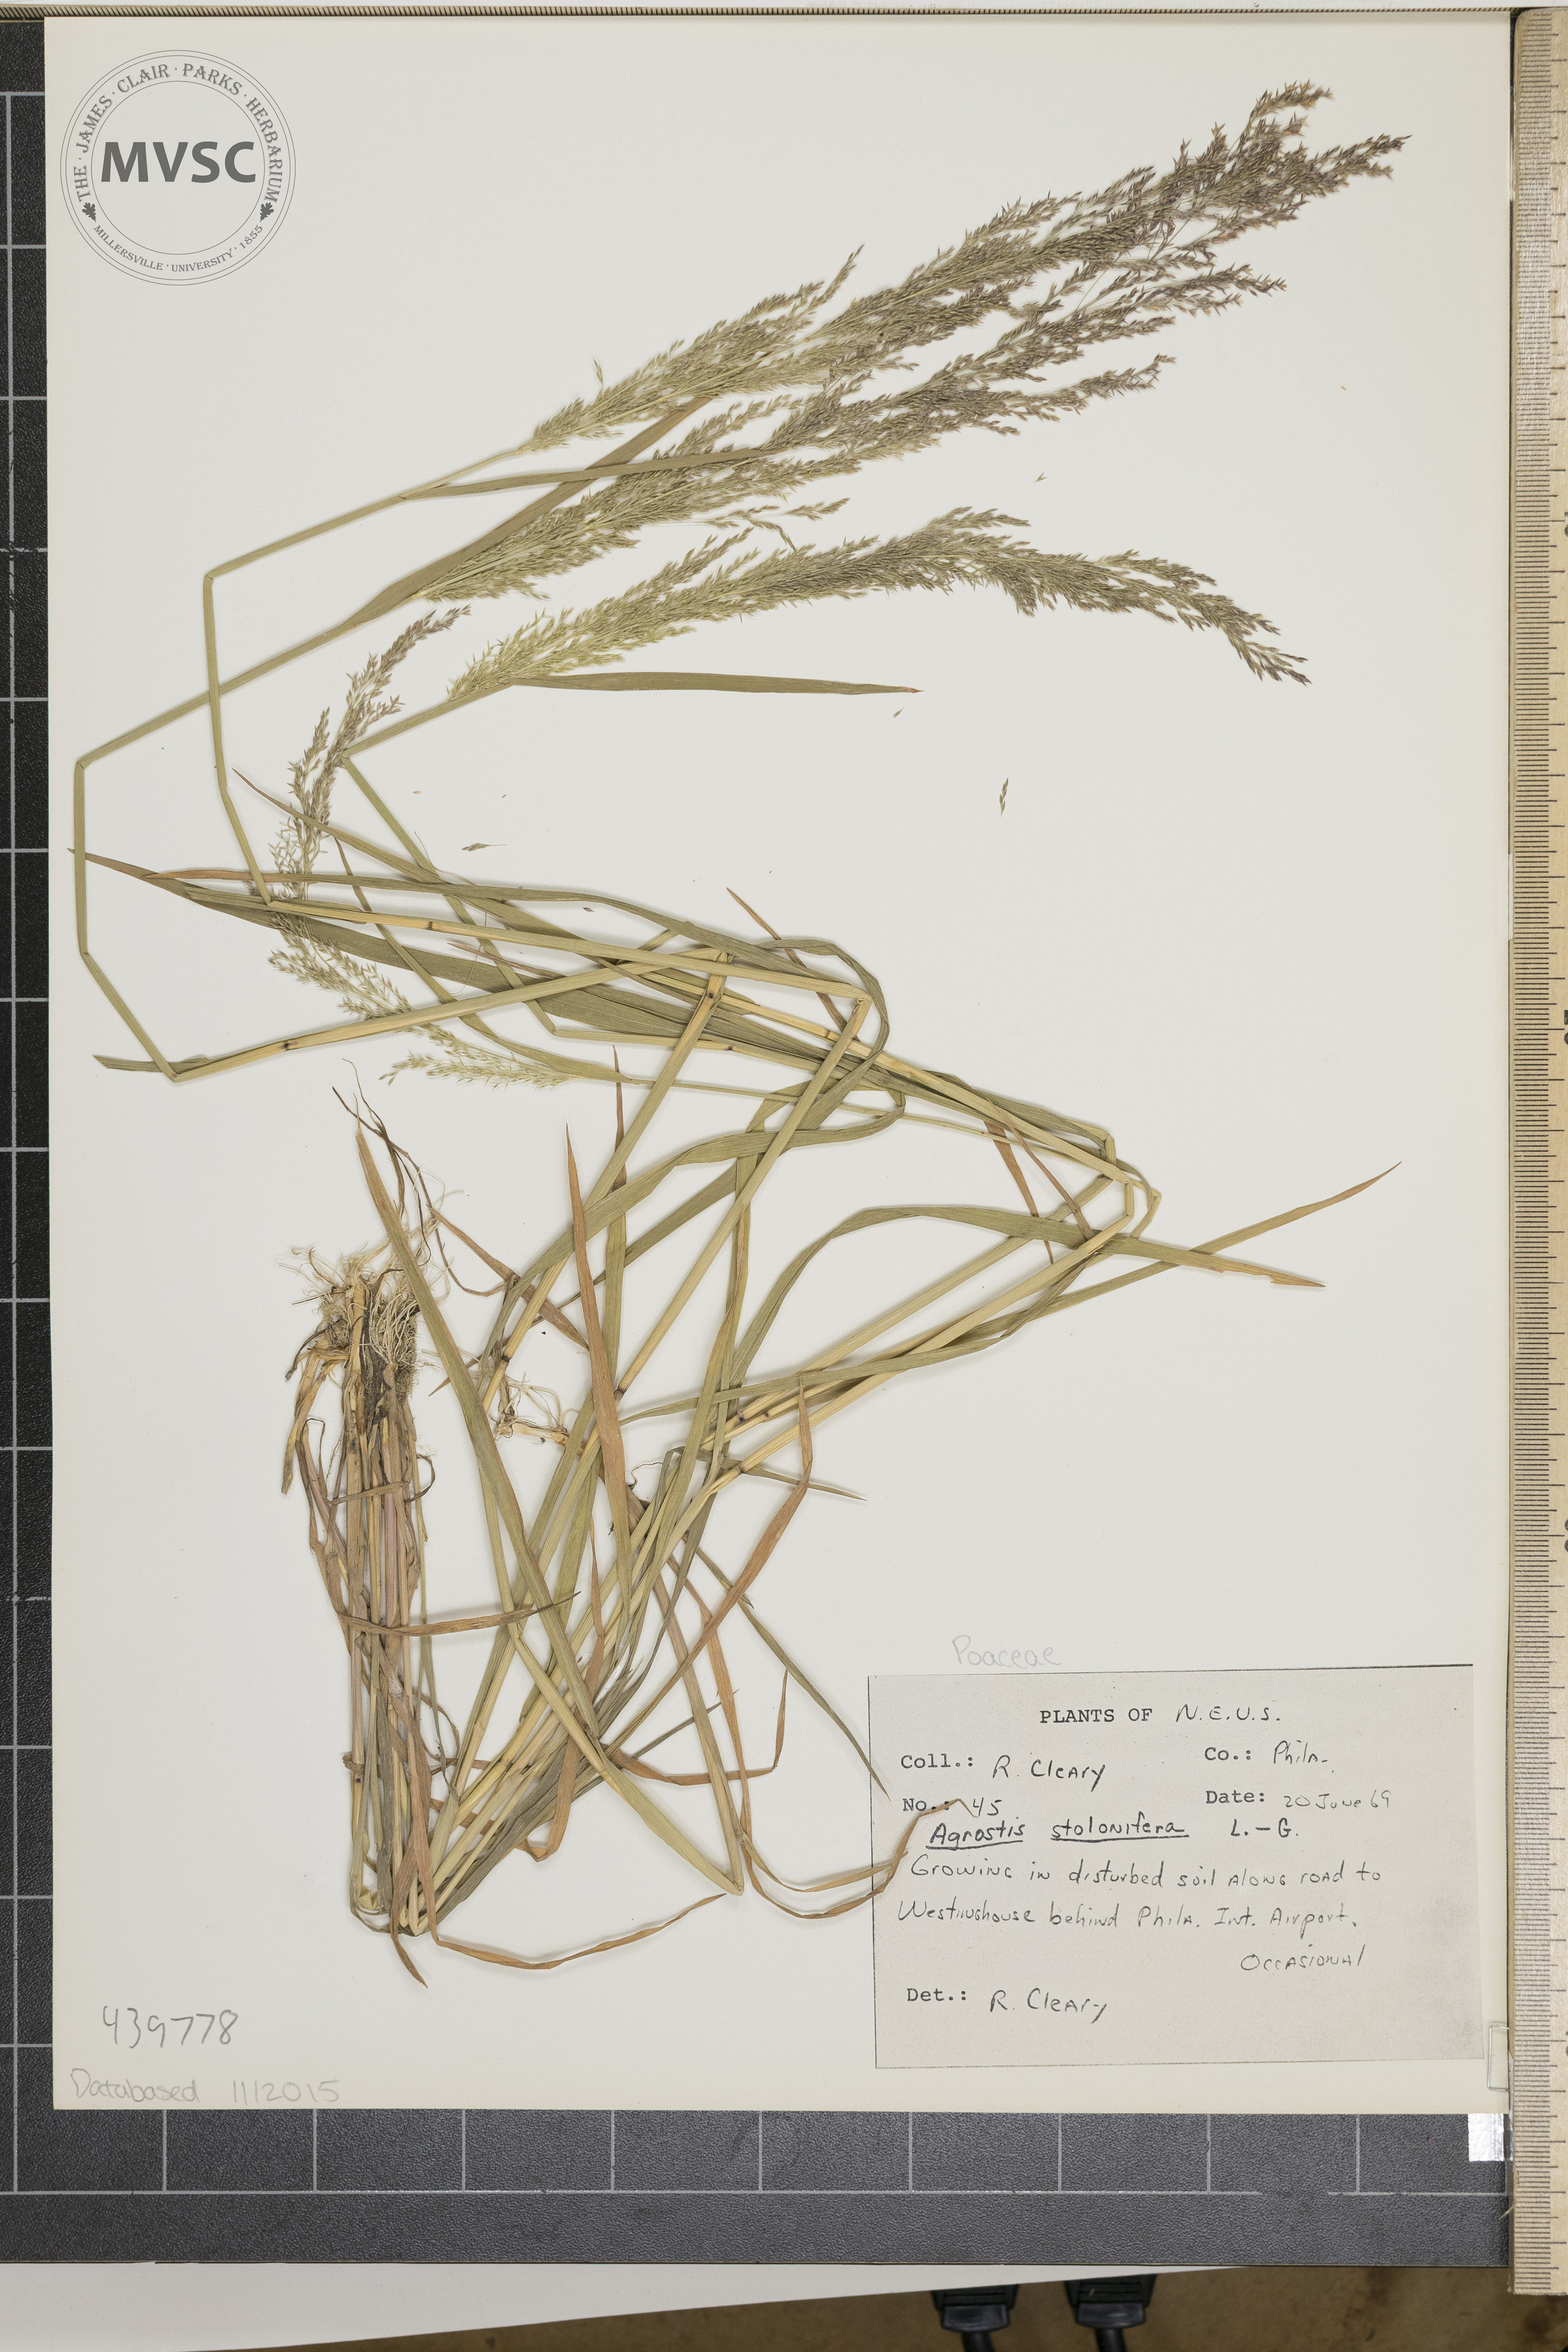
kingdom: Plantae
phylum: Tracheophyta
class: Liliopsida
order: Poales
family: Poaceae
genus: Agrostis
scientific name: Agrostis stolonifera
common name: Creeping bentgrass
